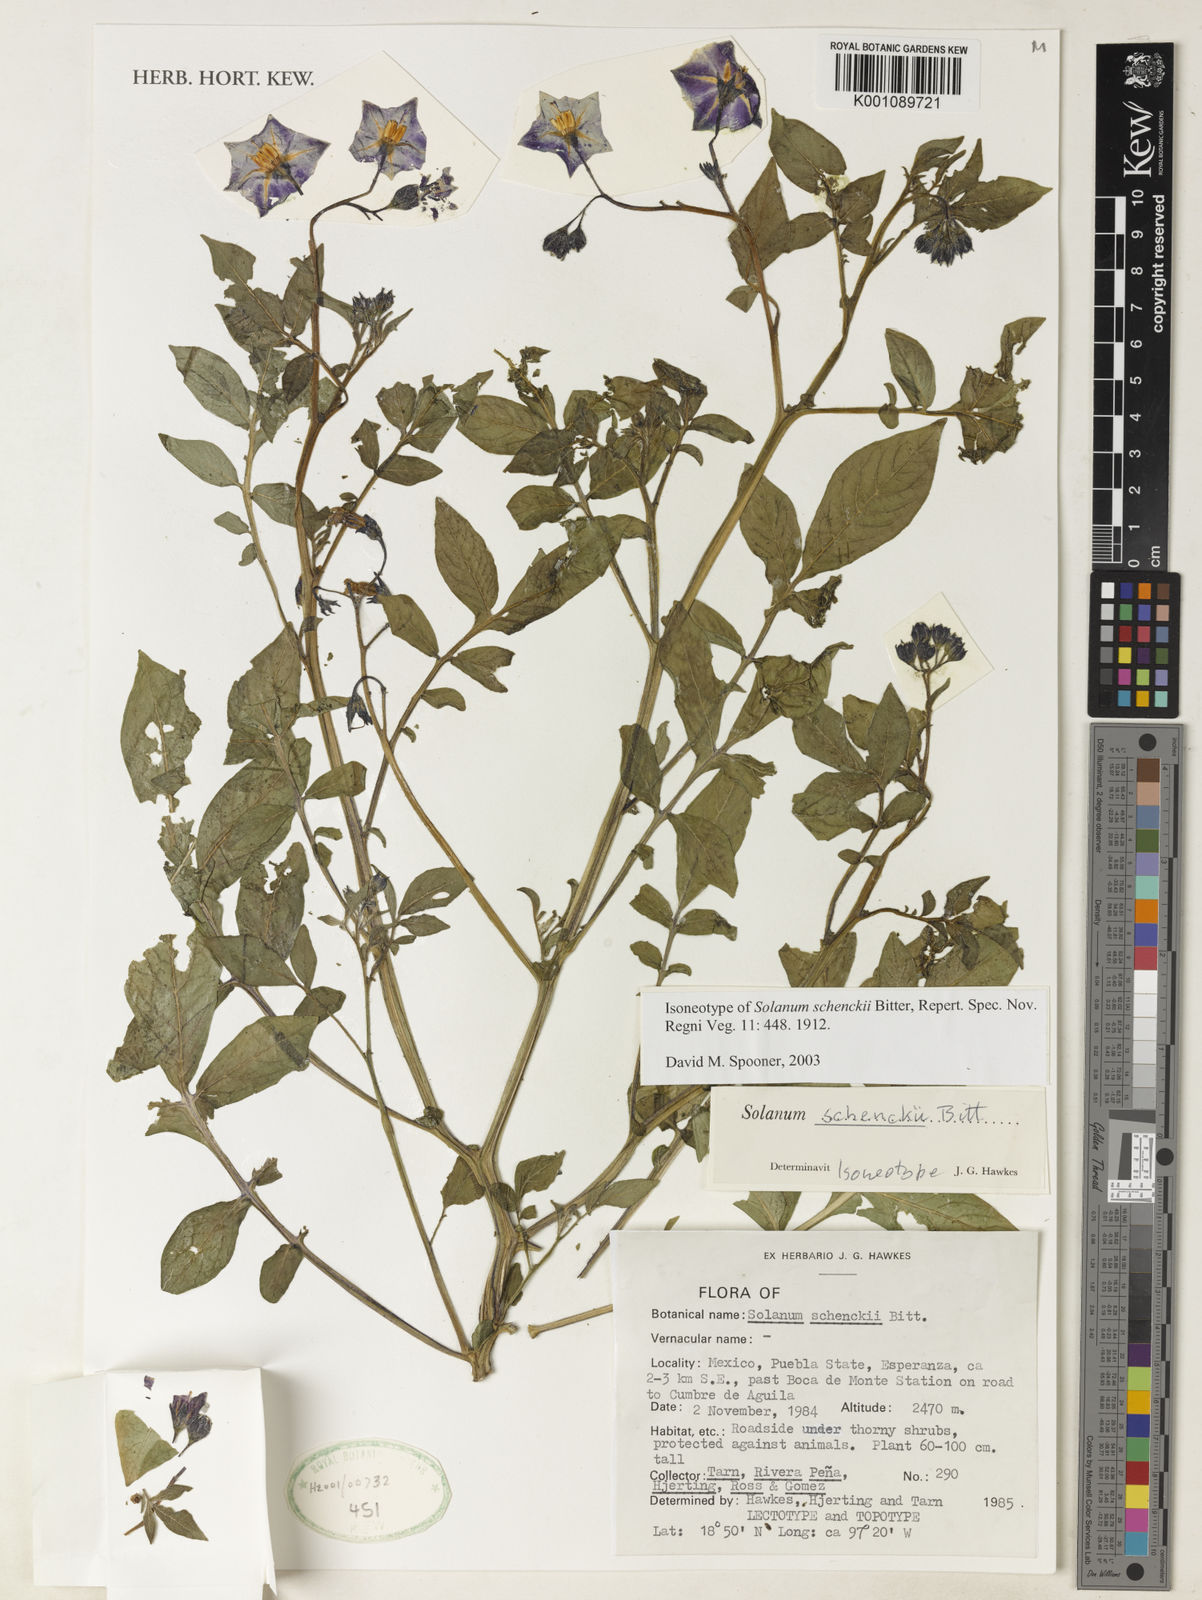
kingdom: Plantae
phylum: Tracheophyta
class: Magnoliopsida
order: Solanales
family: Solanaceae
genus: Solanum
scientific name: Solanum schenckii
